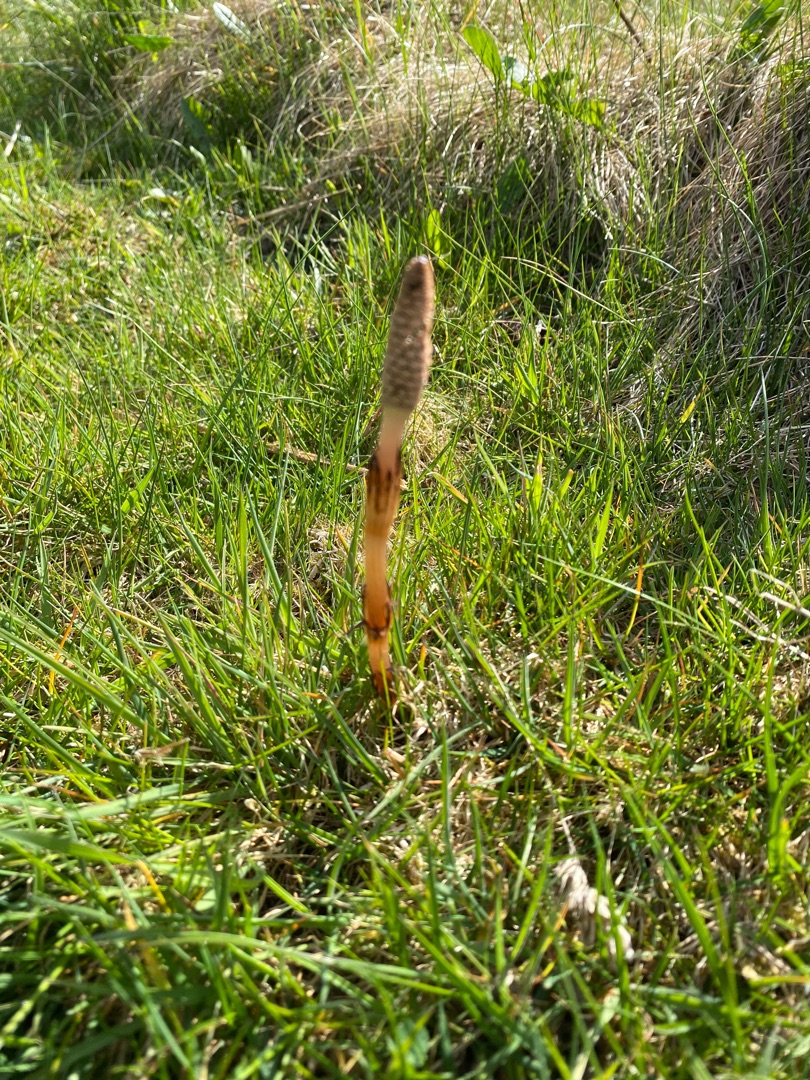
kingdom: Plantae
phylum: Tracheophyta
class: Polypodiopsida
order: Equisetales
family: Equisetaceae
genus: Equisetum
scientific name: Equisetum arvense
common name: Ager-padderok
